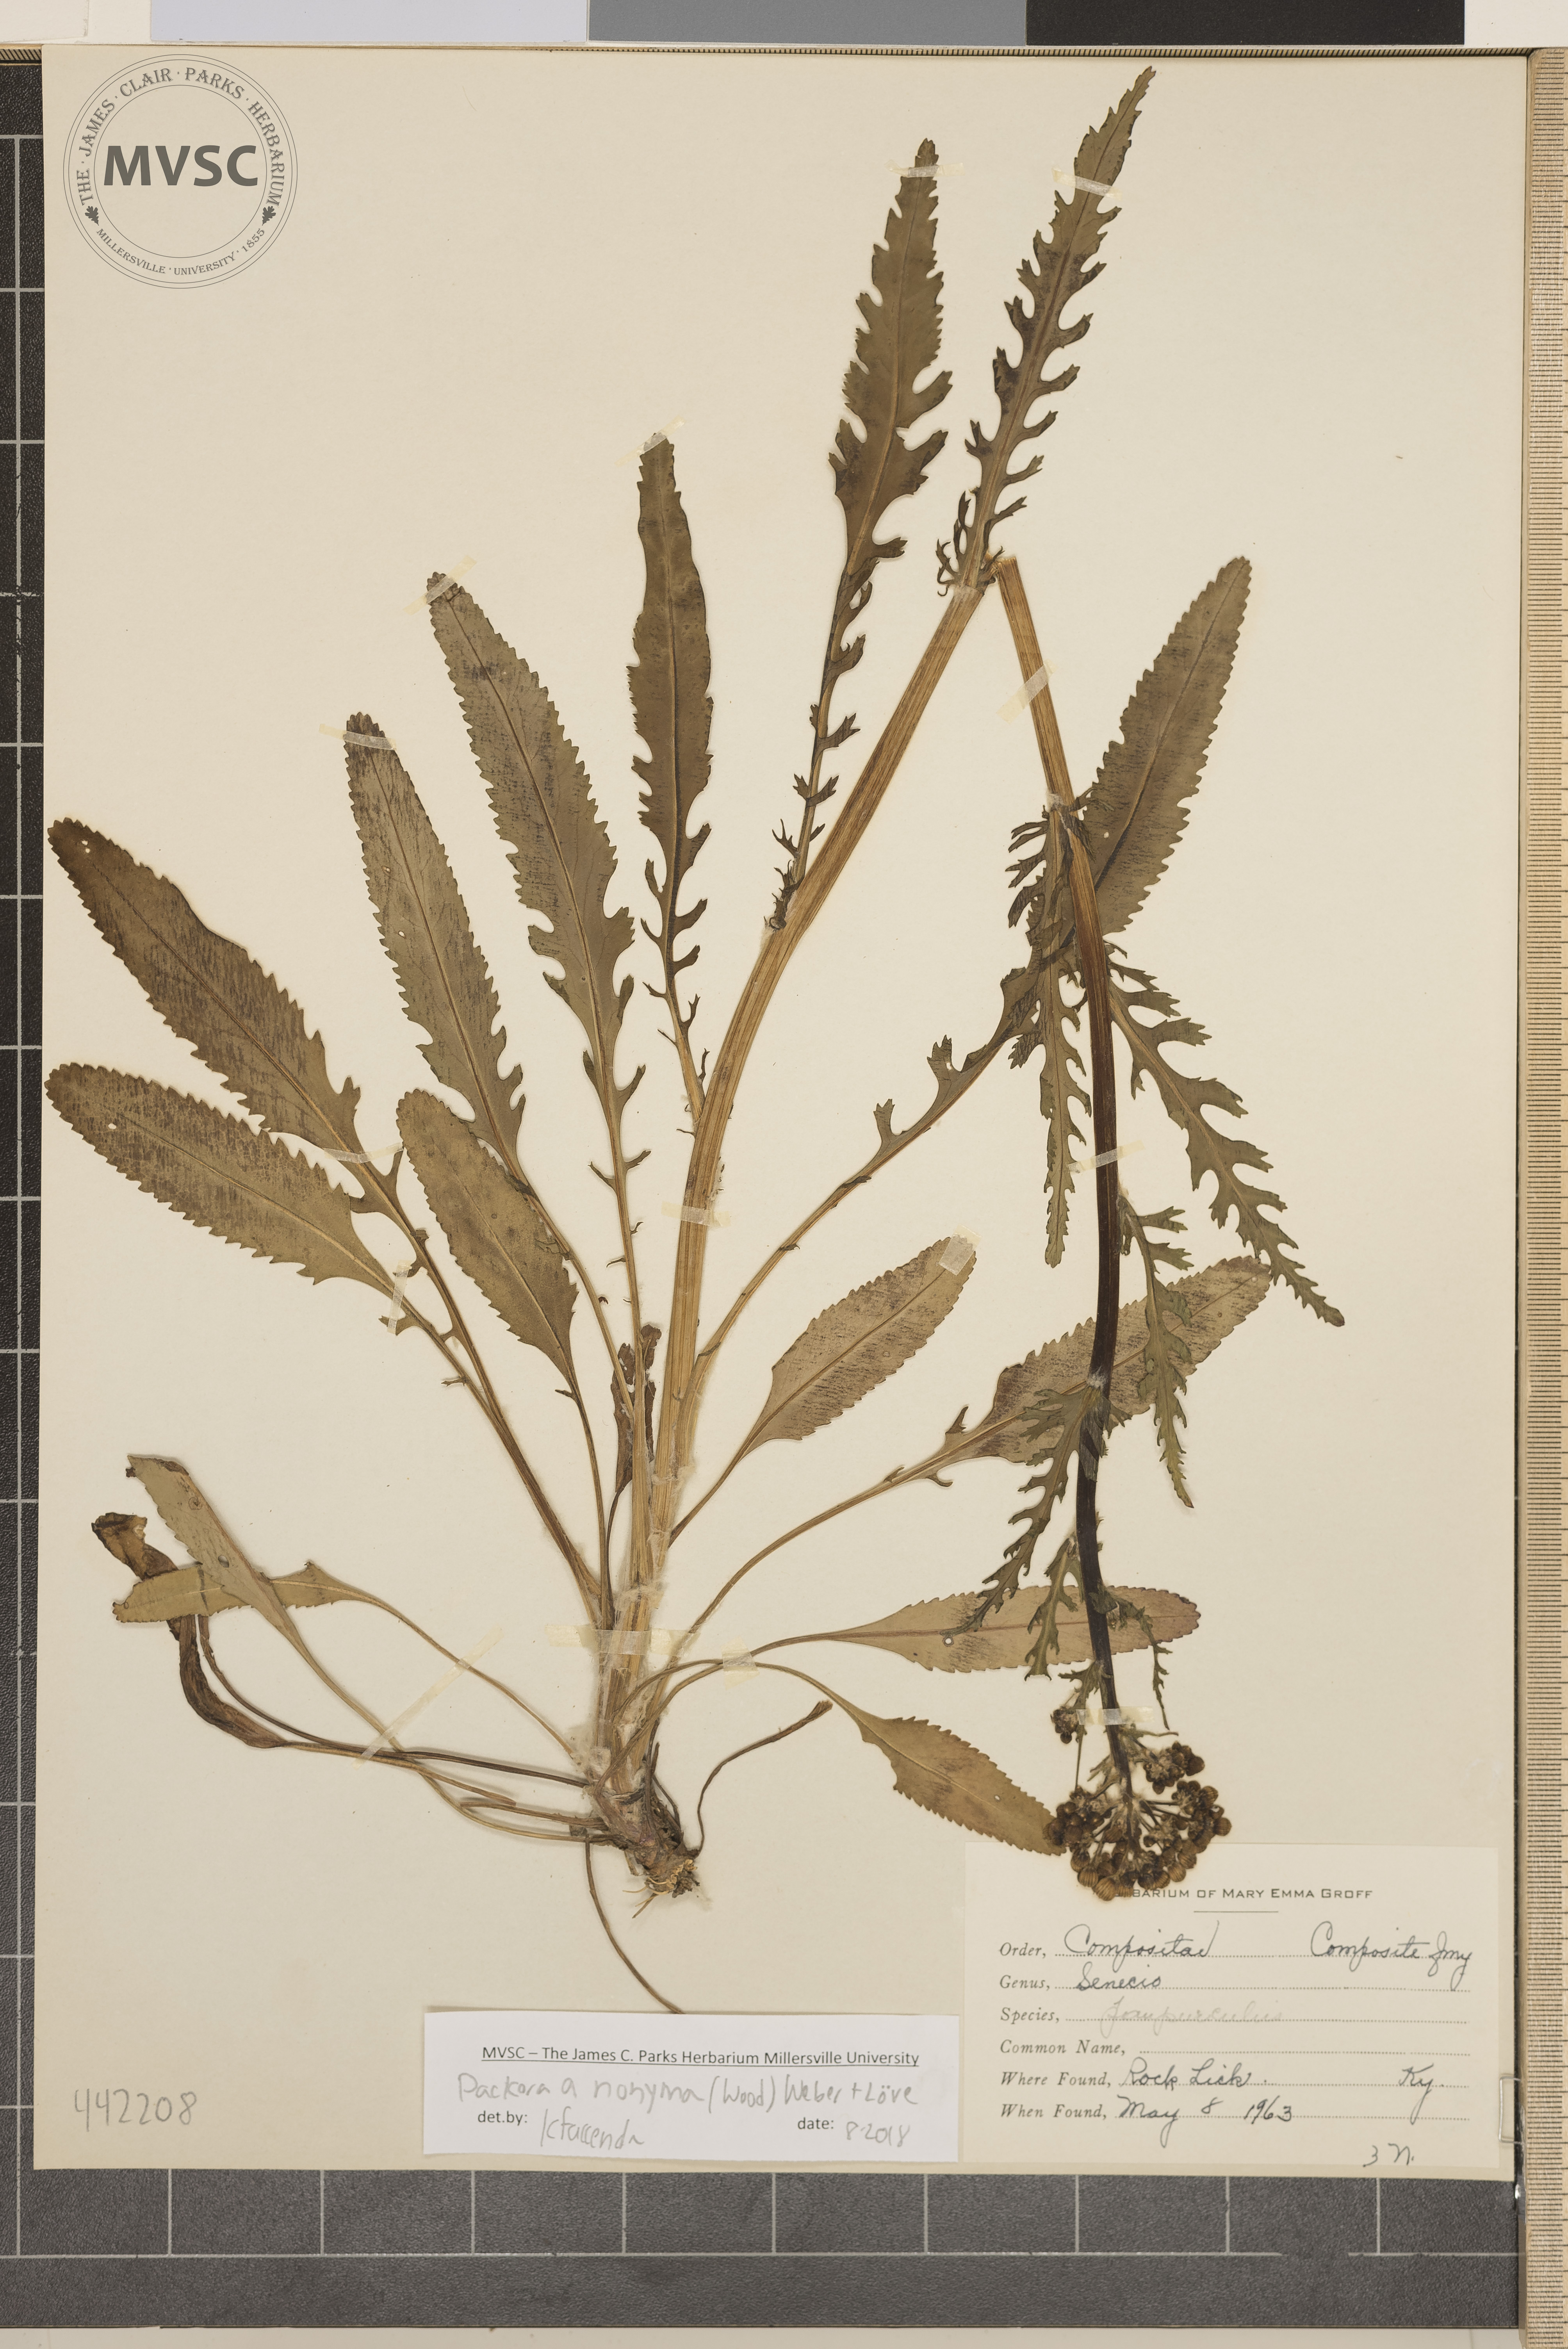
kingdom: Plantae
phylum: Tracheophyta
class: Magnoliopsida
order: Asterales
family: Asteraceae
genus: Packera
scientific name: Packera anonyma
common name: Small ragwort
